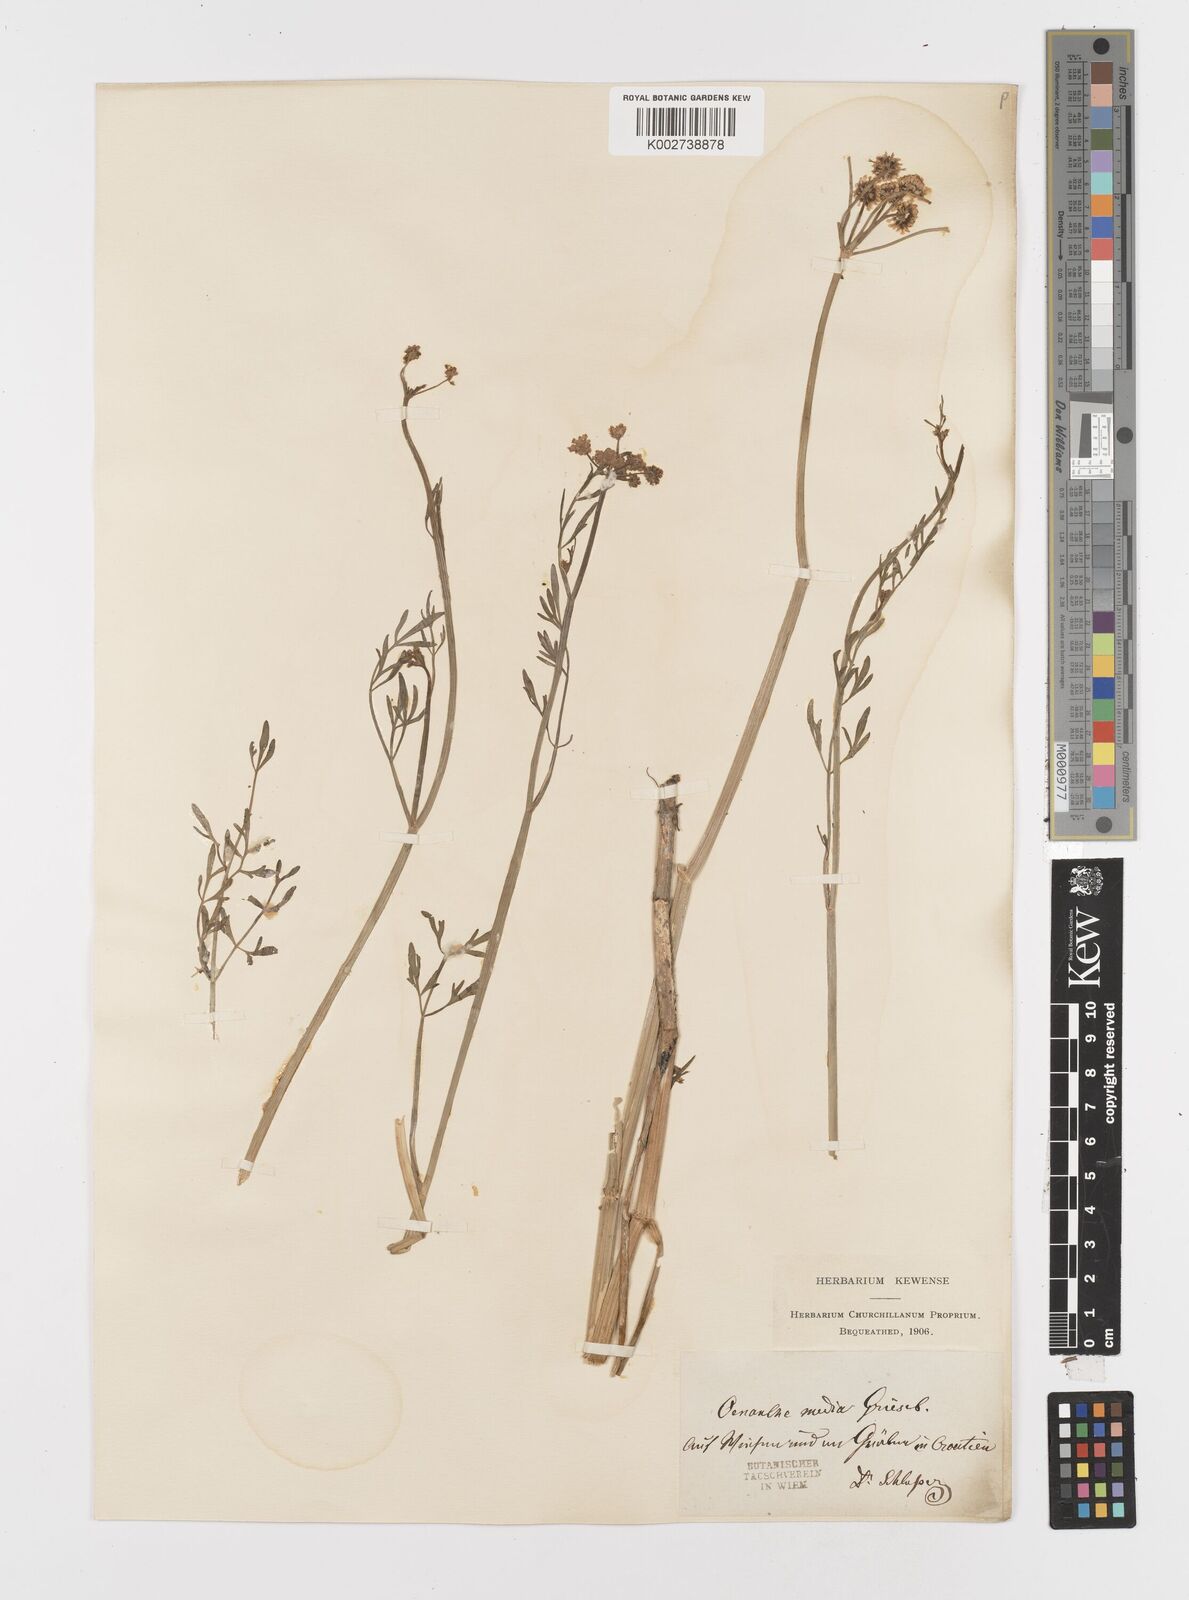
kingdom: Plantae
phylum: Tracheophyta
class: Magnoliopsida
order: Apiales
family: Apiaceae
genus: Oenanthe
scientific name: Oenanthe silaifolia
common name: Narrow-leaved water-dropwort
